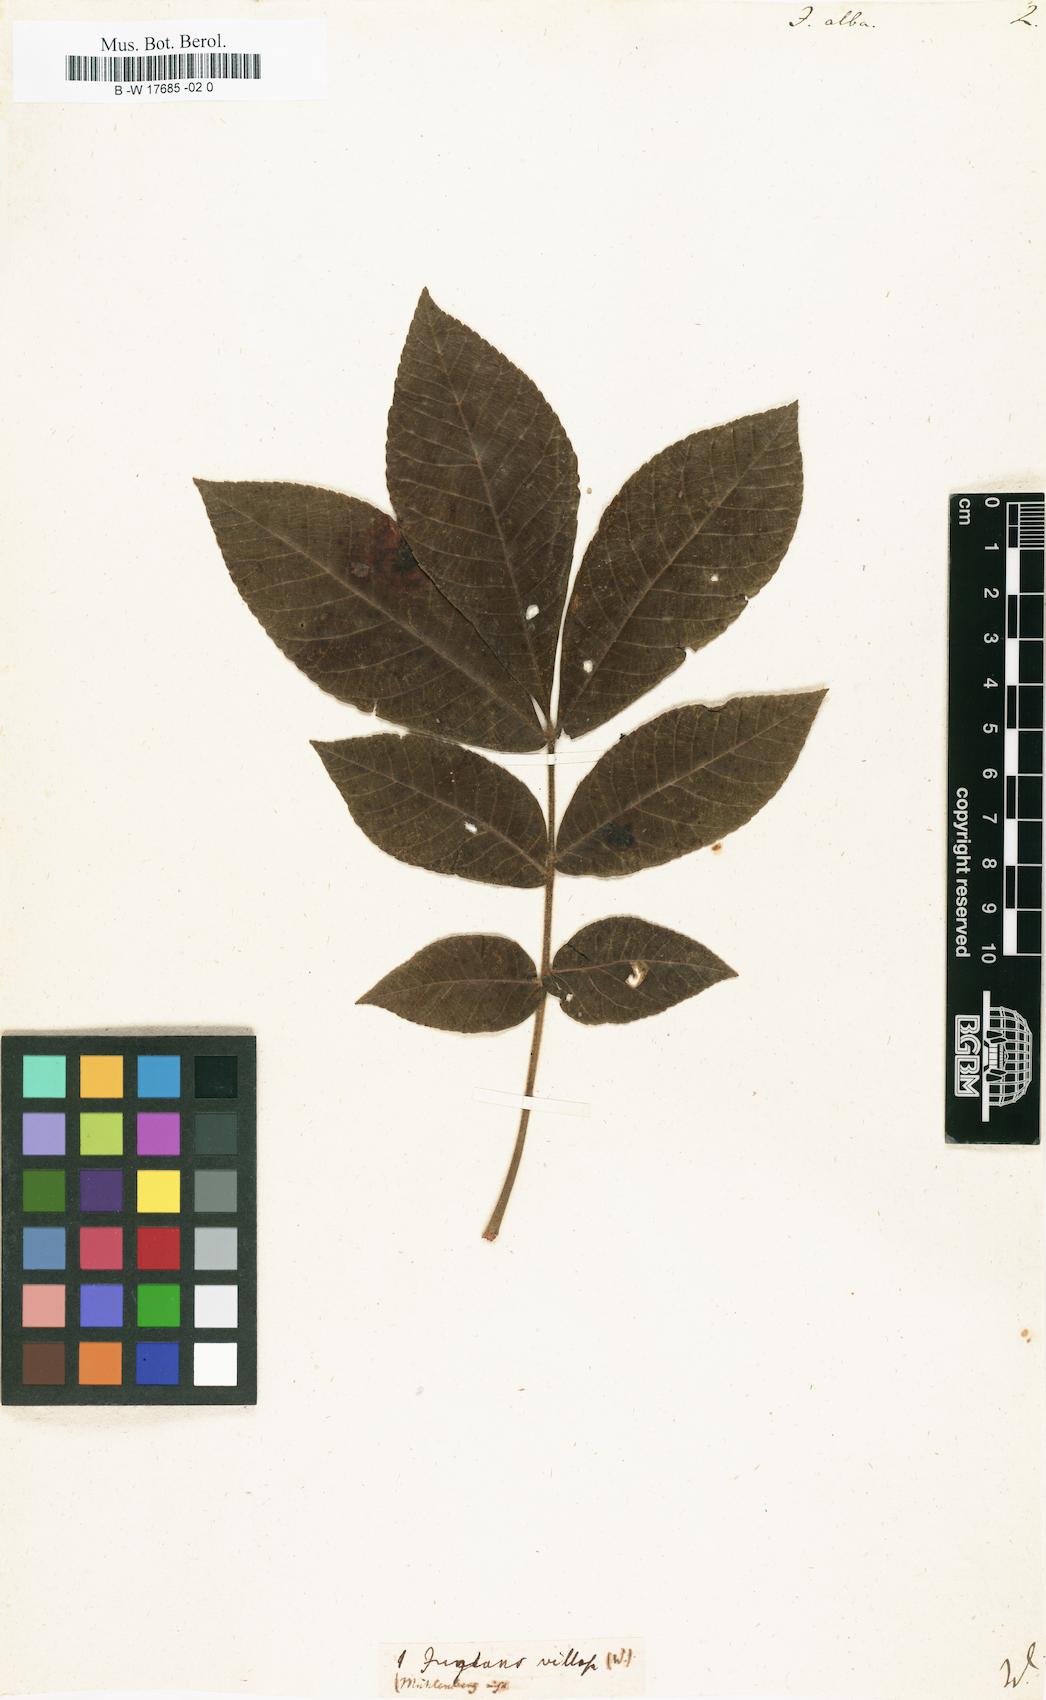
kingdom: Plantae
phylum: Tracheophyta
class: Magnoliopsida
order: Fagales
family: Juglandaceae
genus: Carya
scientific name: Carya alba
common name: Mockernut hickory
